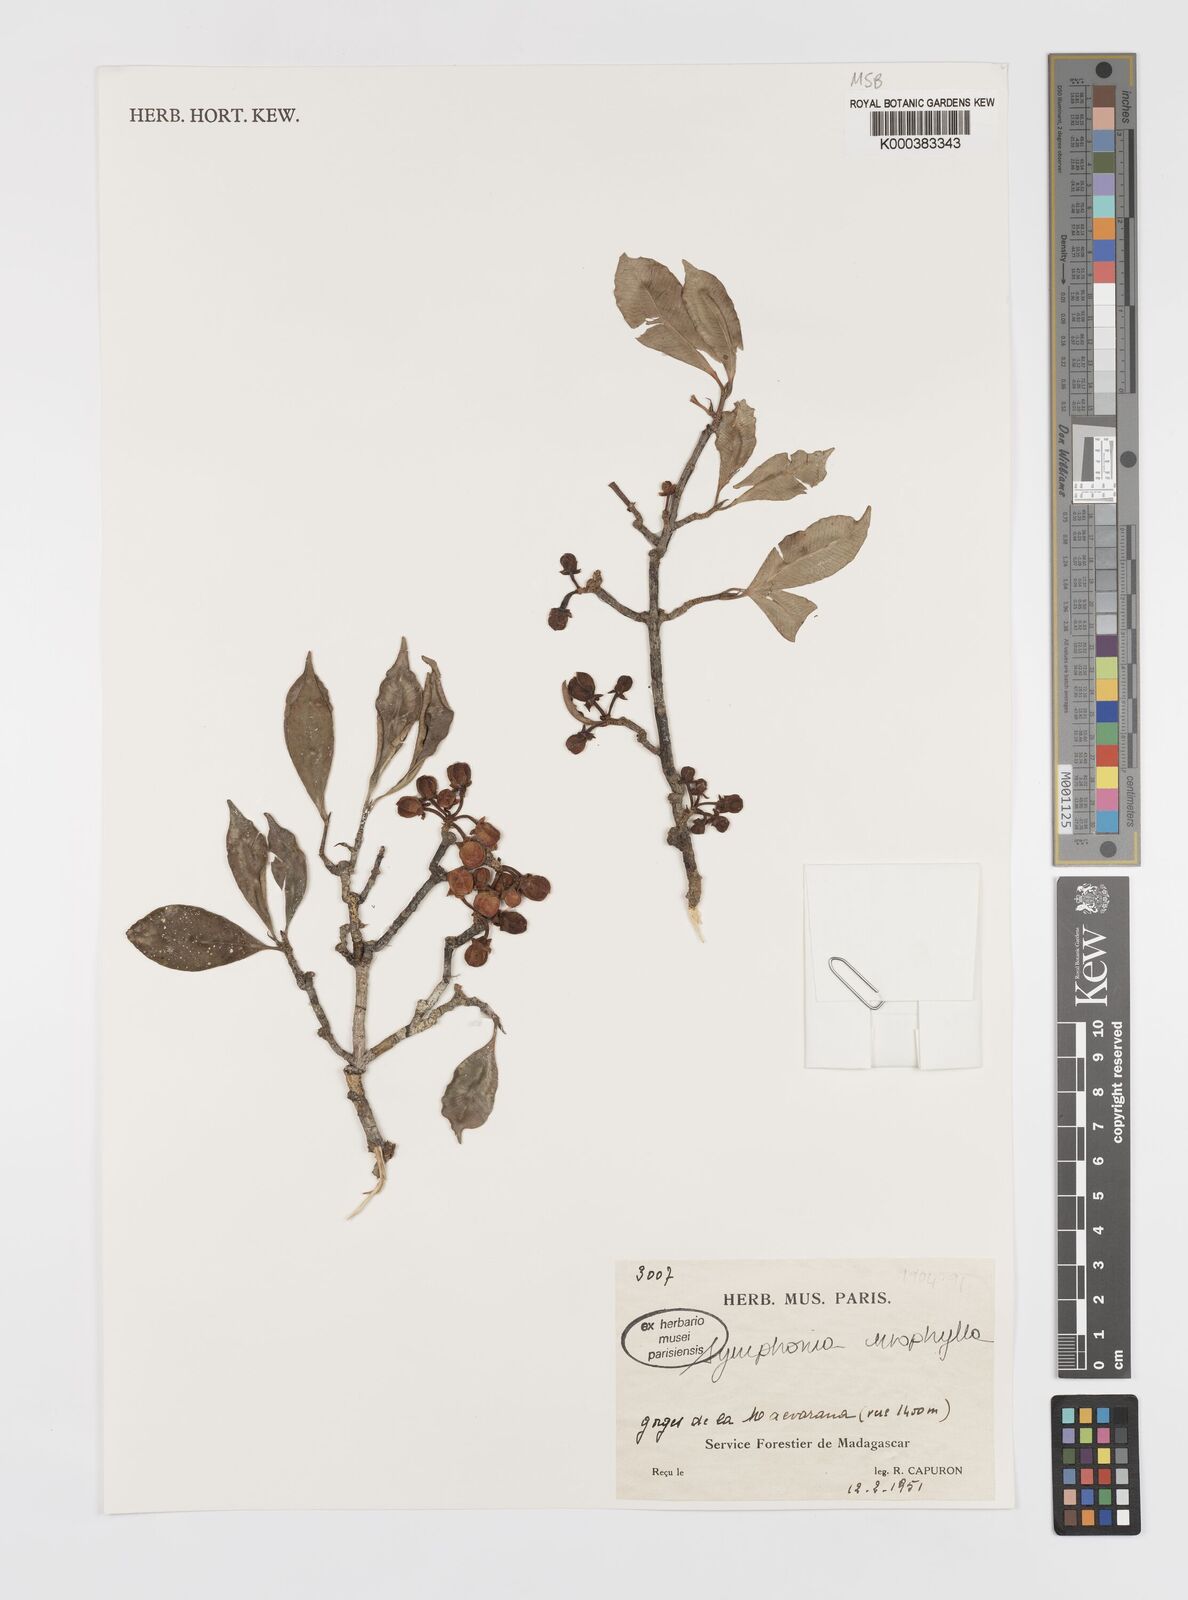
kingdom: Plantae
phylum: Tracheophyta
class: Magnoliopsida
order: Malpighiales
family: Clusiaceae
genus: Symphonia
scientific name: Symphonia
